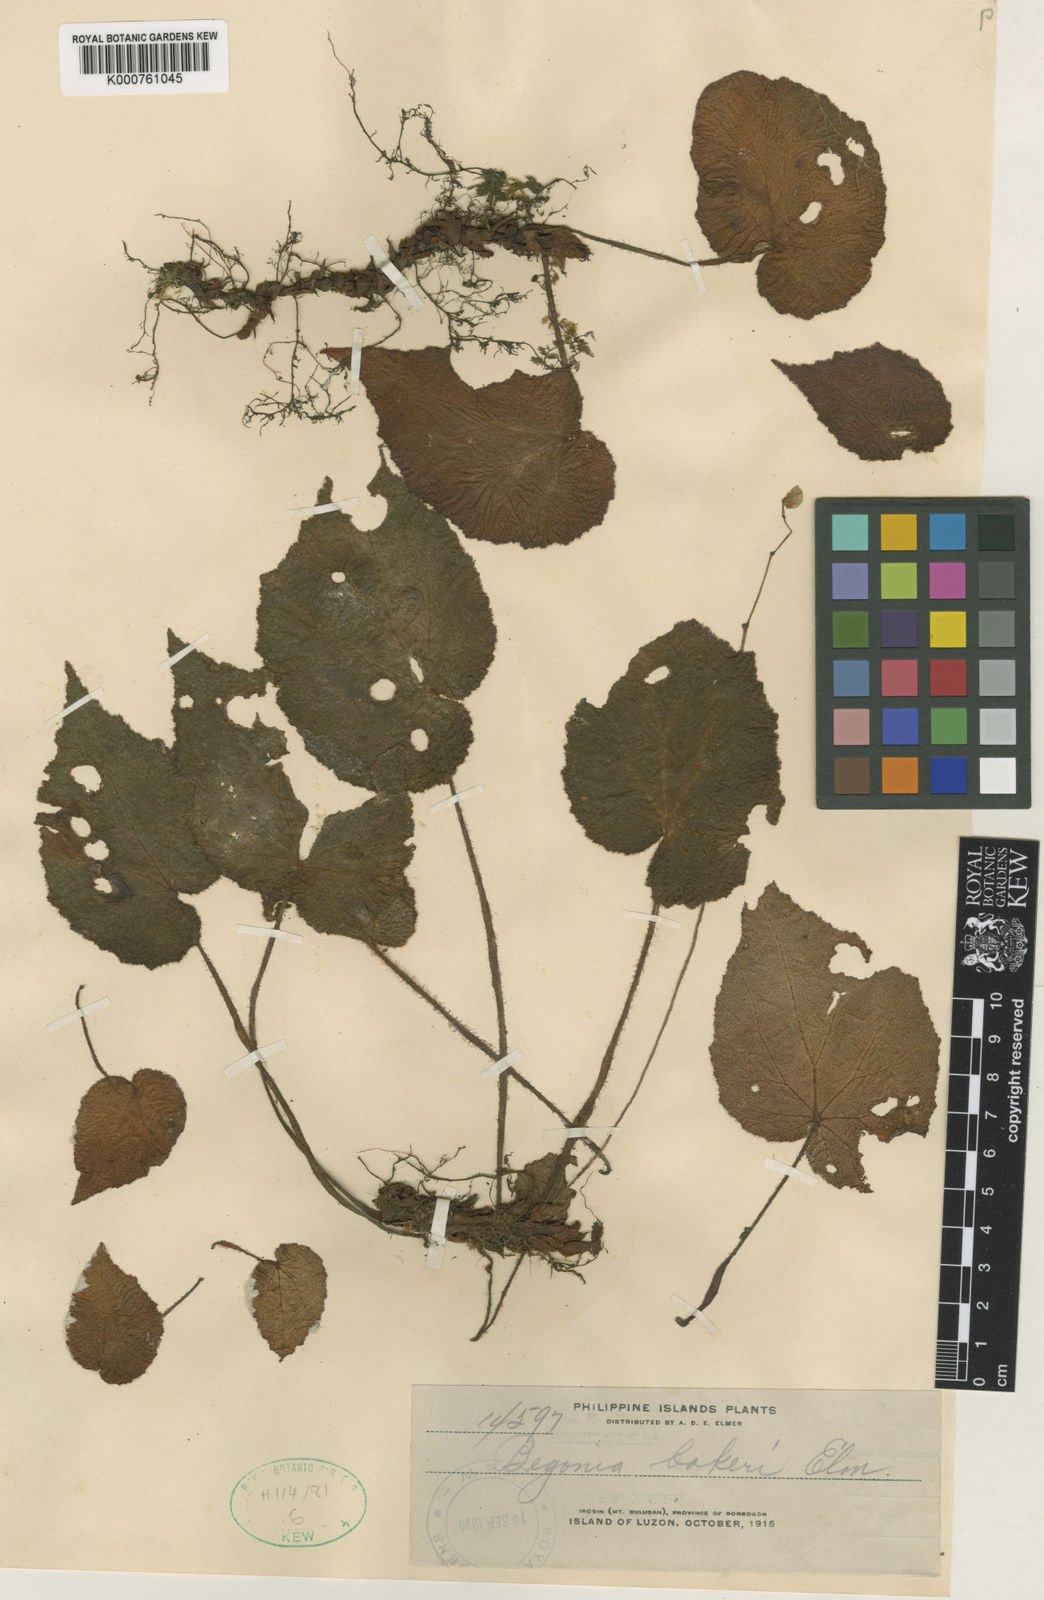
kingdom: Plantae
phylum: Tracheophyta
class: Magnoliopsida
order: Cucurbitales
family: Begoniaceae
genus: Begonia
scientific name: Begonia
